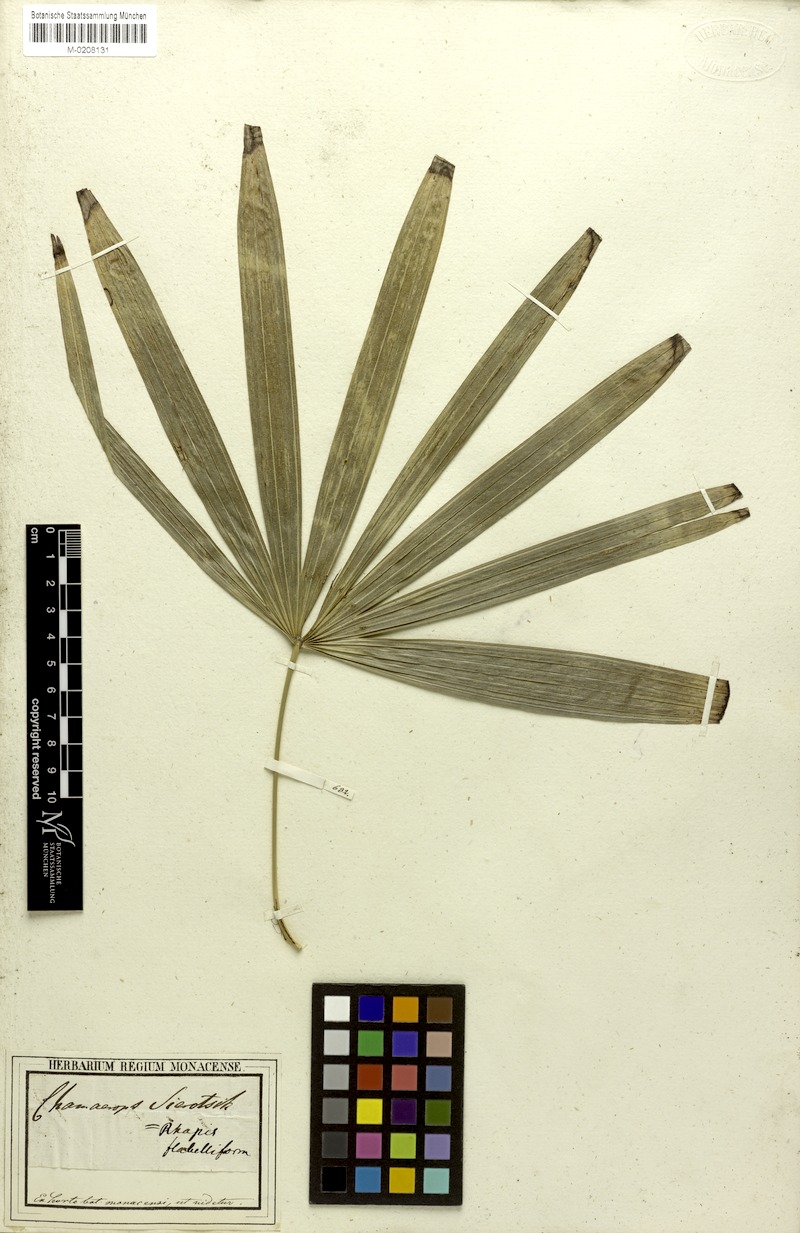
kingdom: Plantae
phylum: Tracheophyta
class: Liliopsida
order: Arecales
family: Arecaceae
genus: Rhapis
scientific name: Rhapis excelsa
